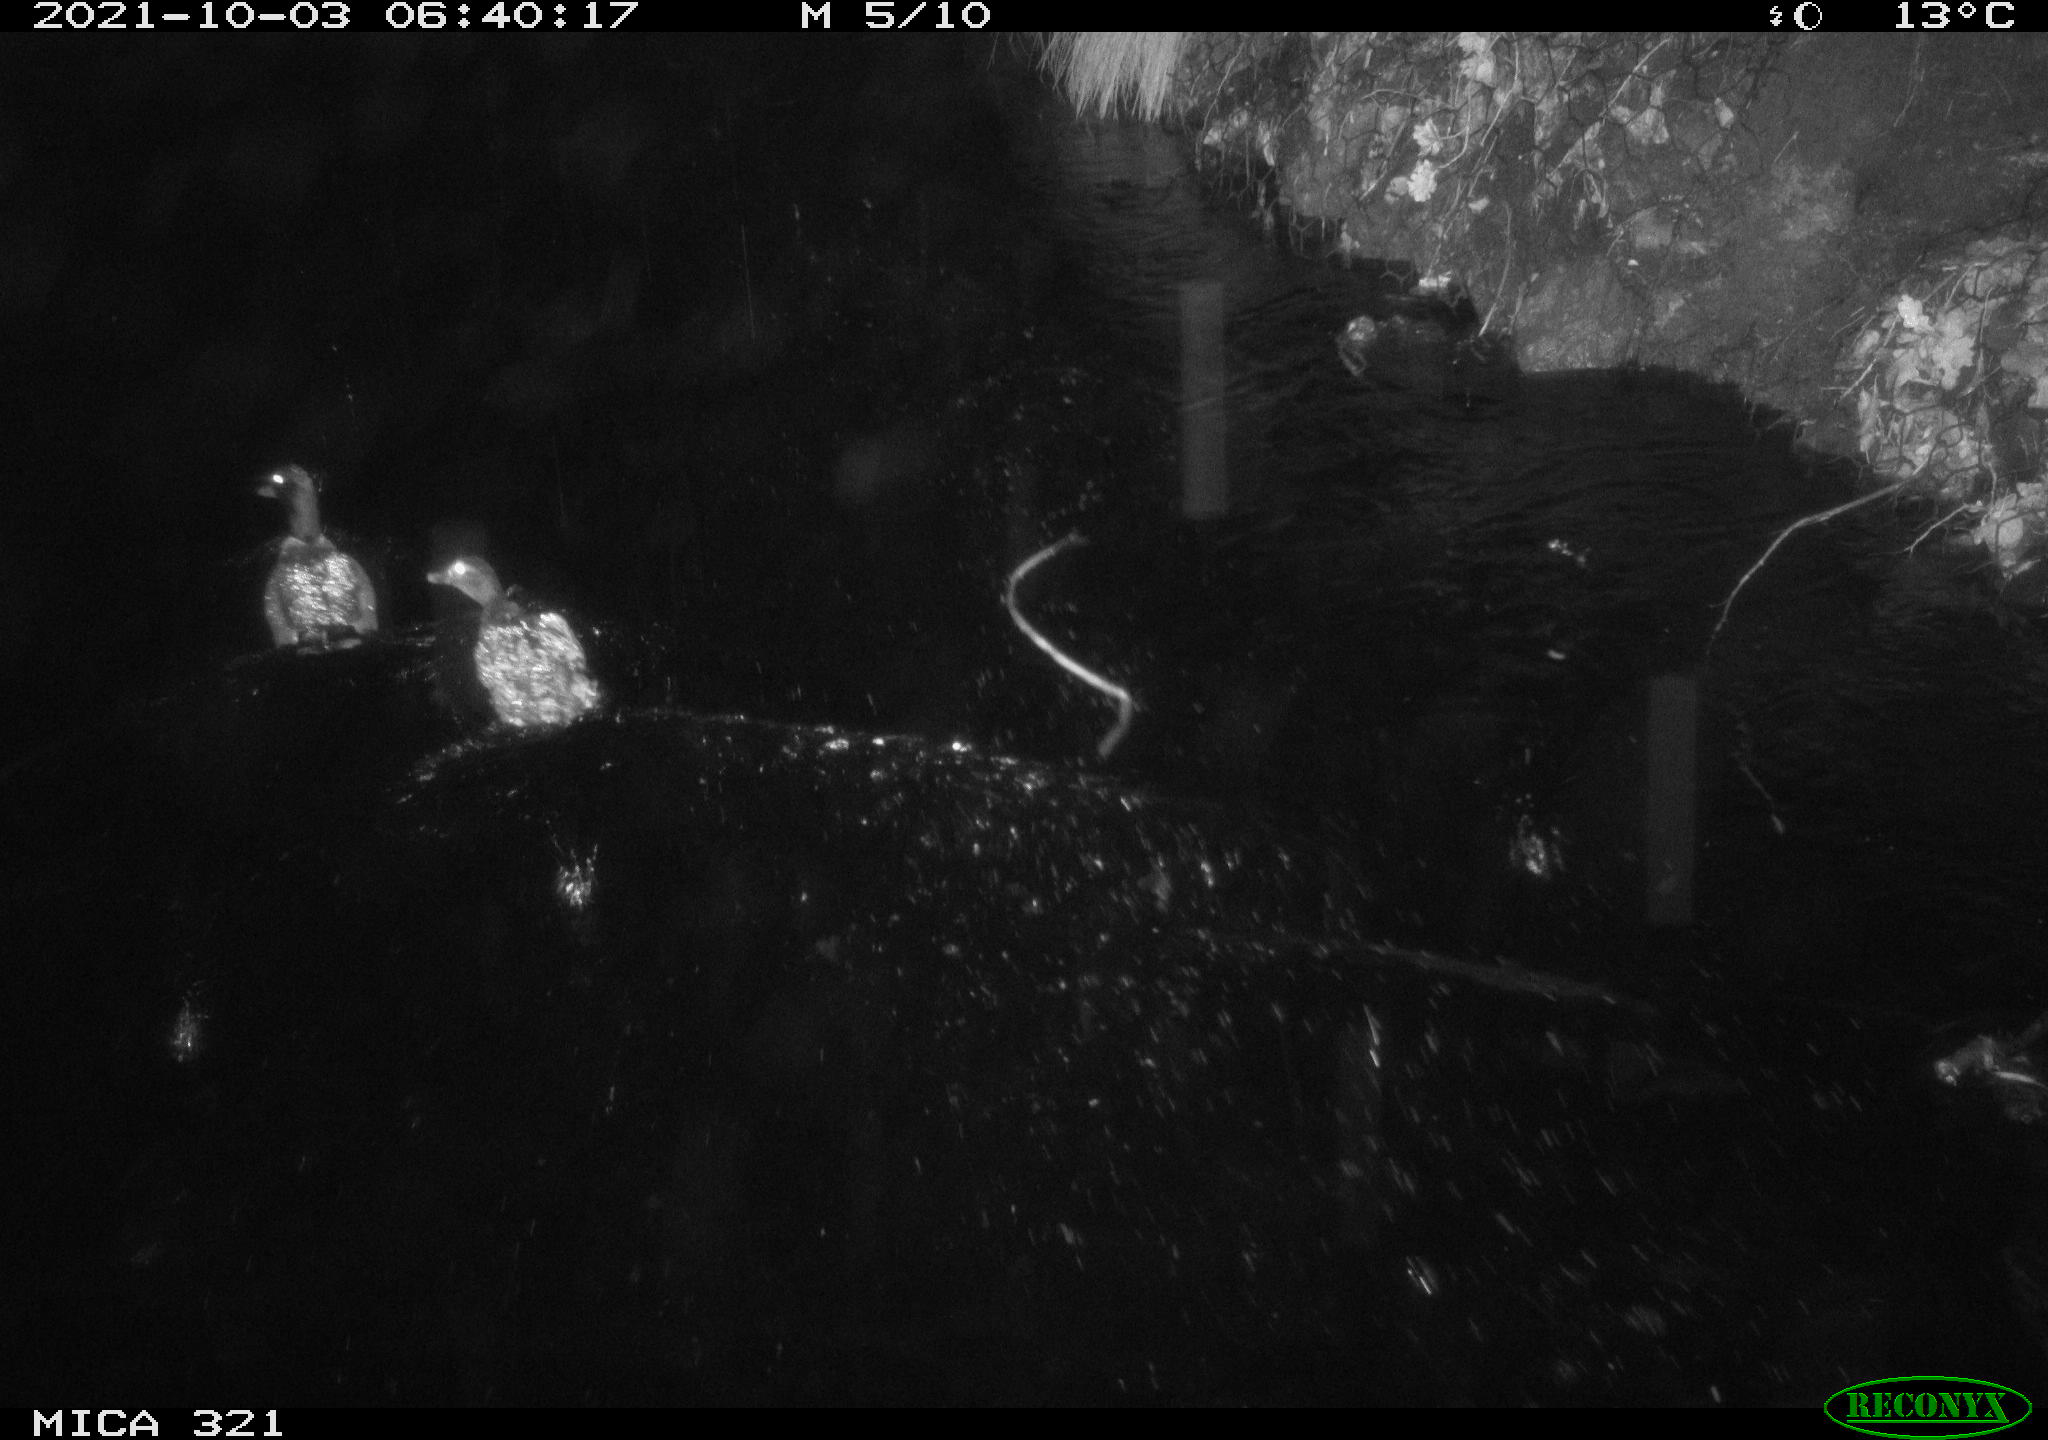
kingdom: Animalia
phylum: Chordata
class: Aves
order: Anseriformes
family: Anatidae
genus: Anas
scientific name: Anas platyrhynchos
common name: Mallard
